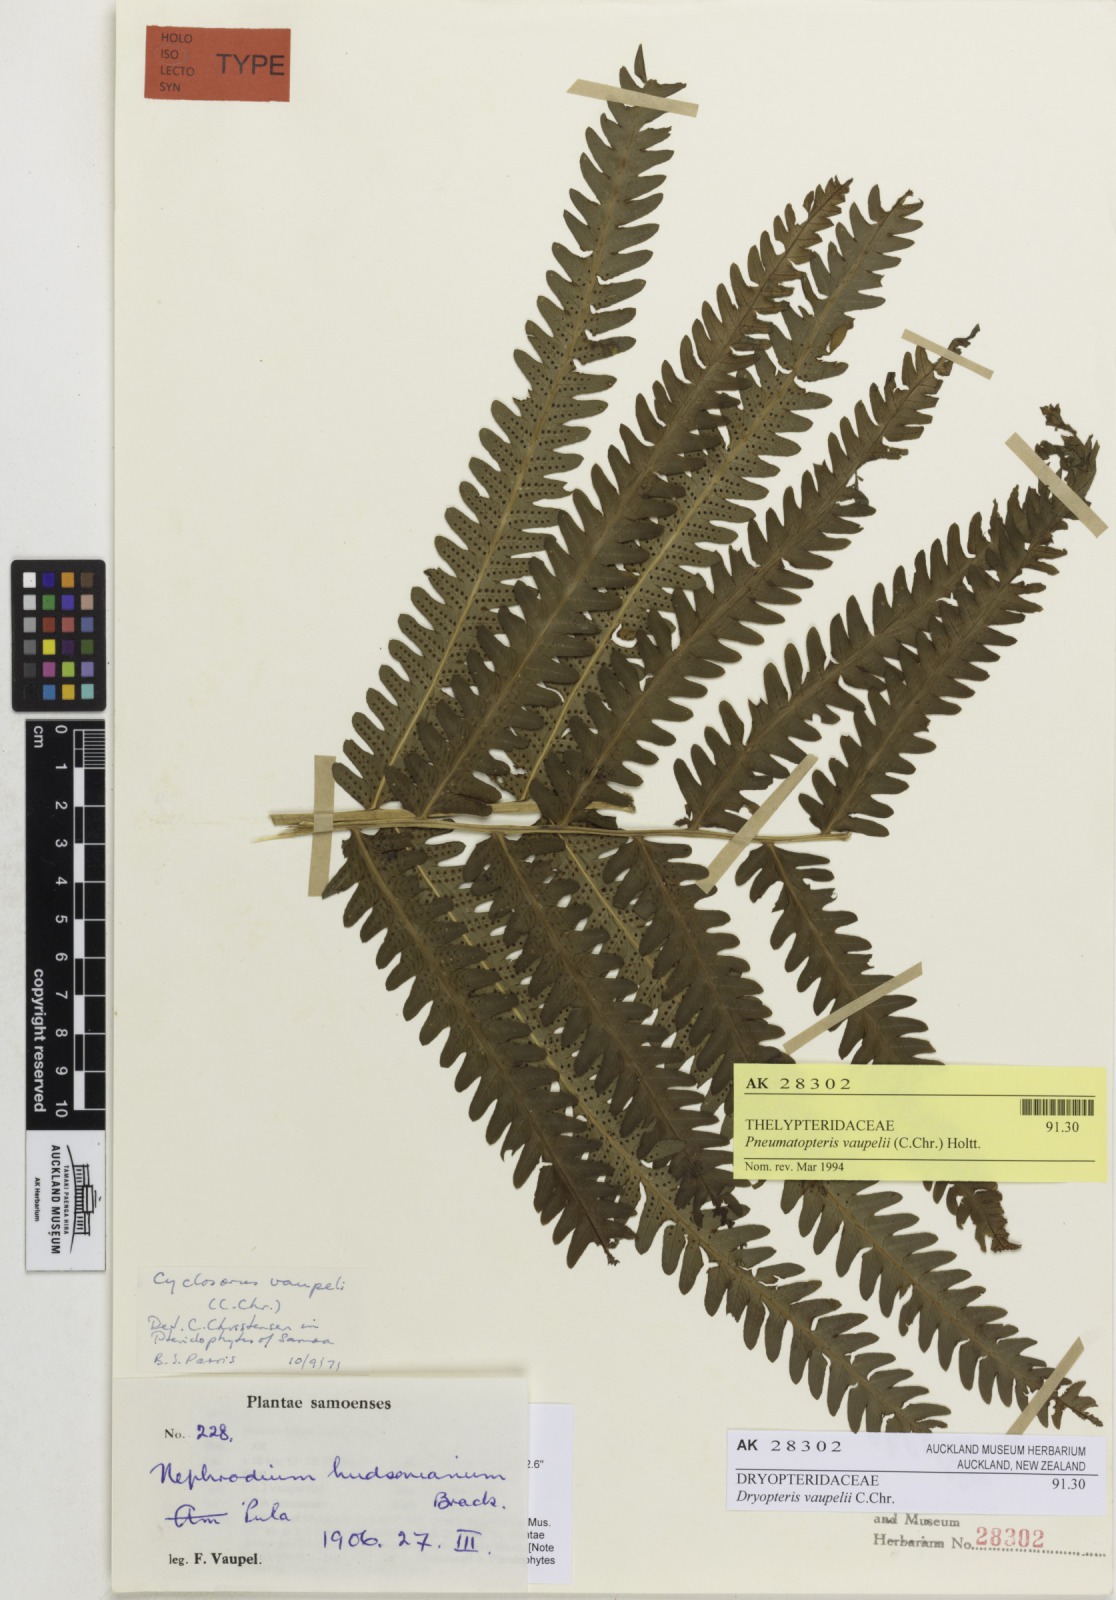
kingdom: Plantae
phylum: Tracheophyta
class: Polypodiopsida
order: Polypodiales
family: Thelypteridaceae
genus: Reholttumia
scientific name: Reholttumia vaupelii
